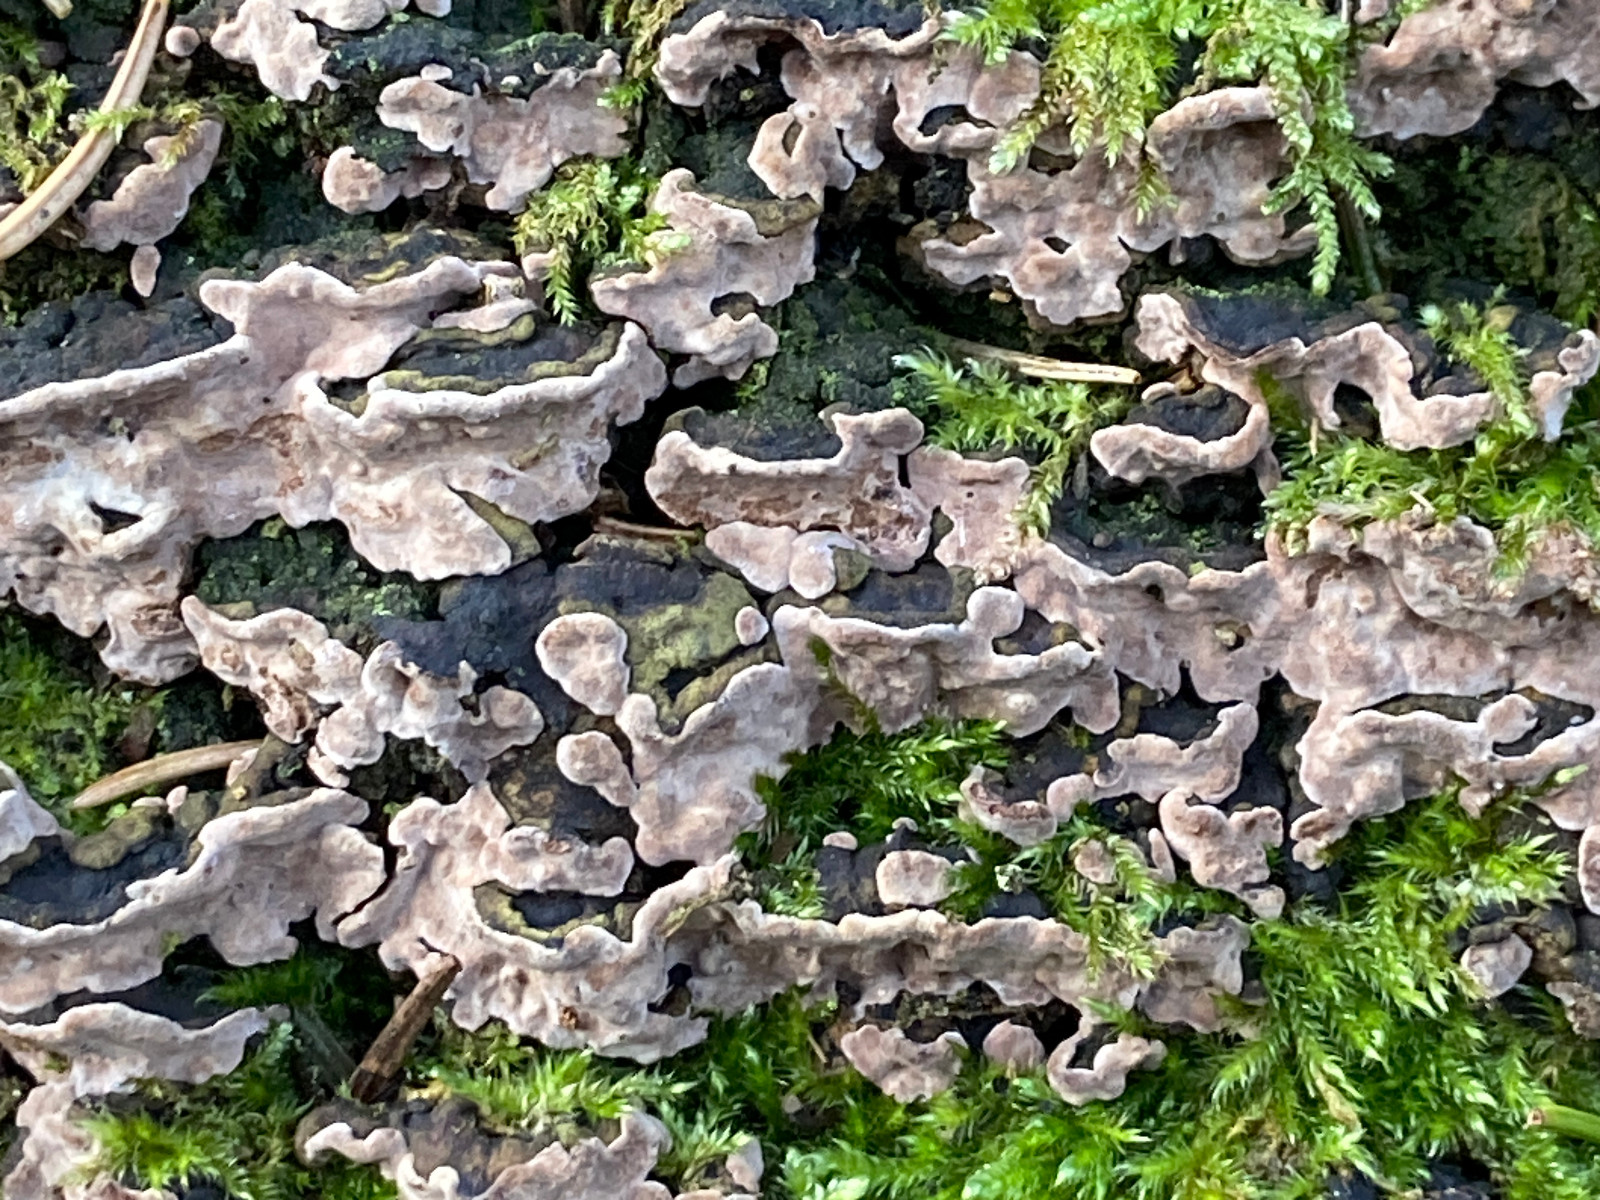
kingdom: Fungi
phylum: Basidiomycota
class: Agaricomycetes
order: Russulales
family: Echinodontiaceae
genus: Amylostereum
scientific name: Amylostereum chailletii
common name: gran-lædersvamp
